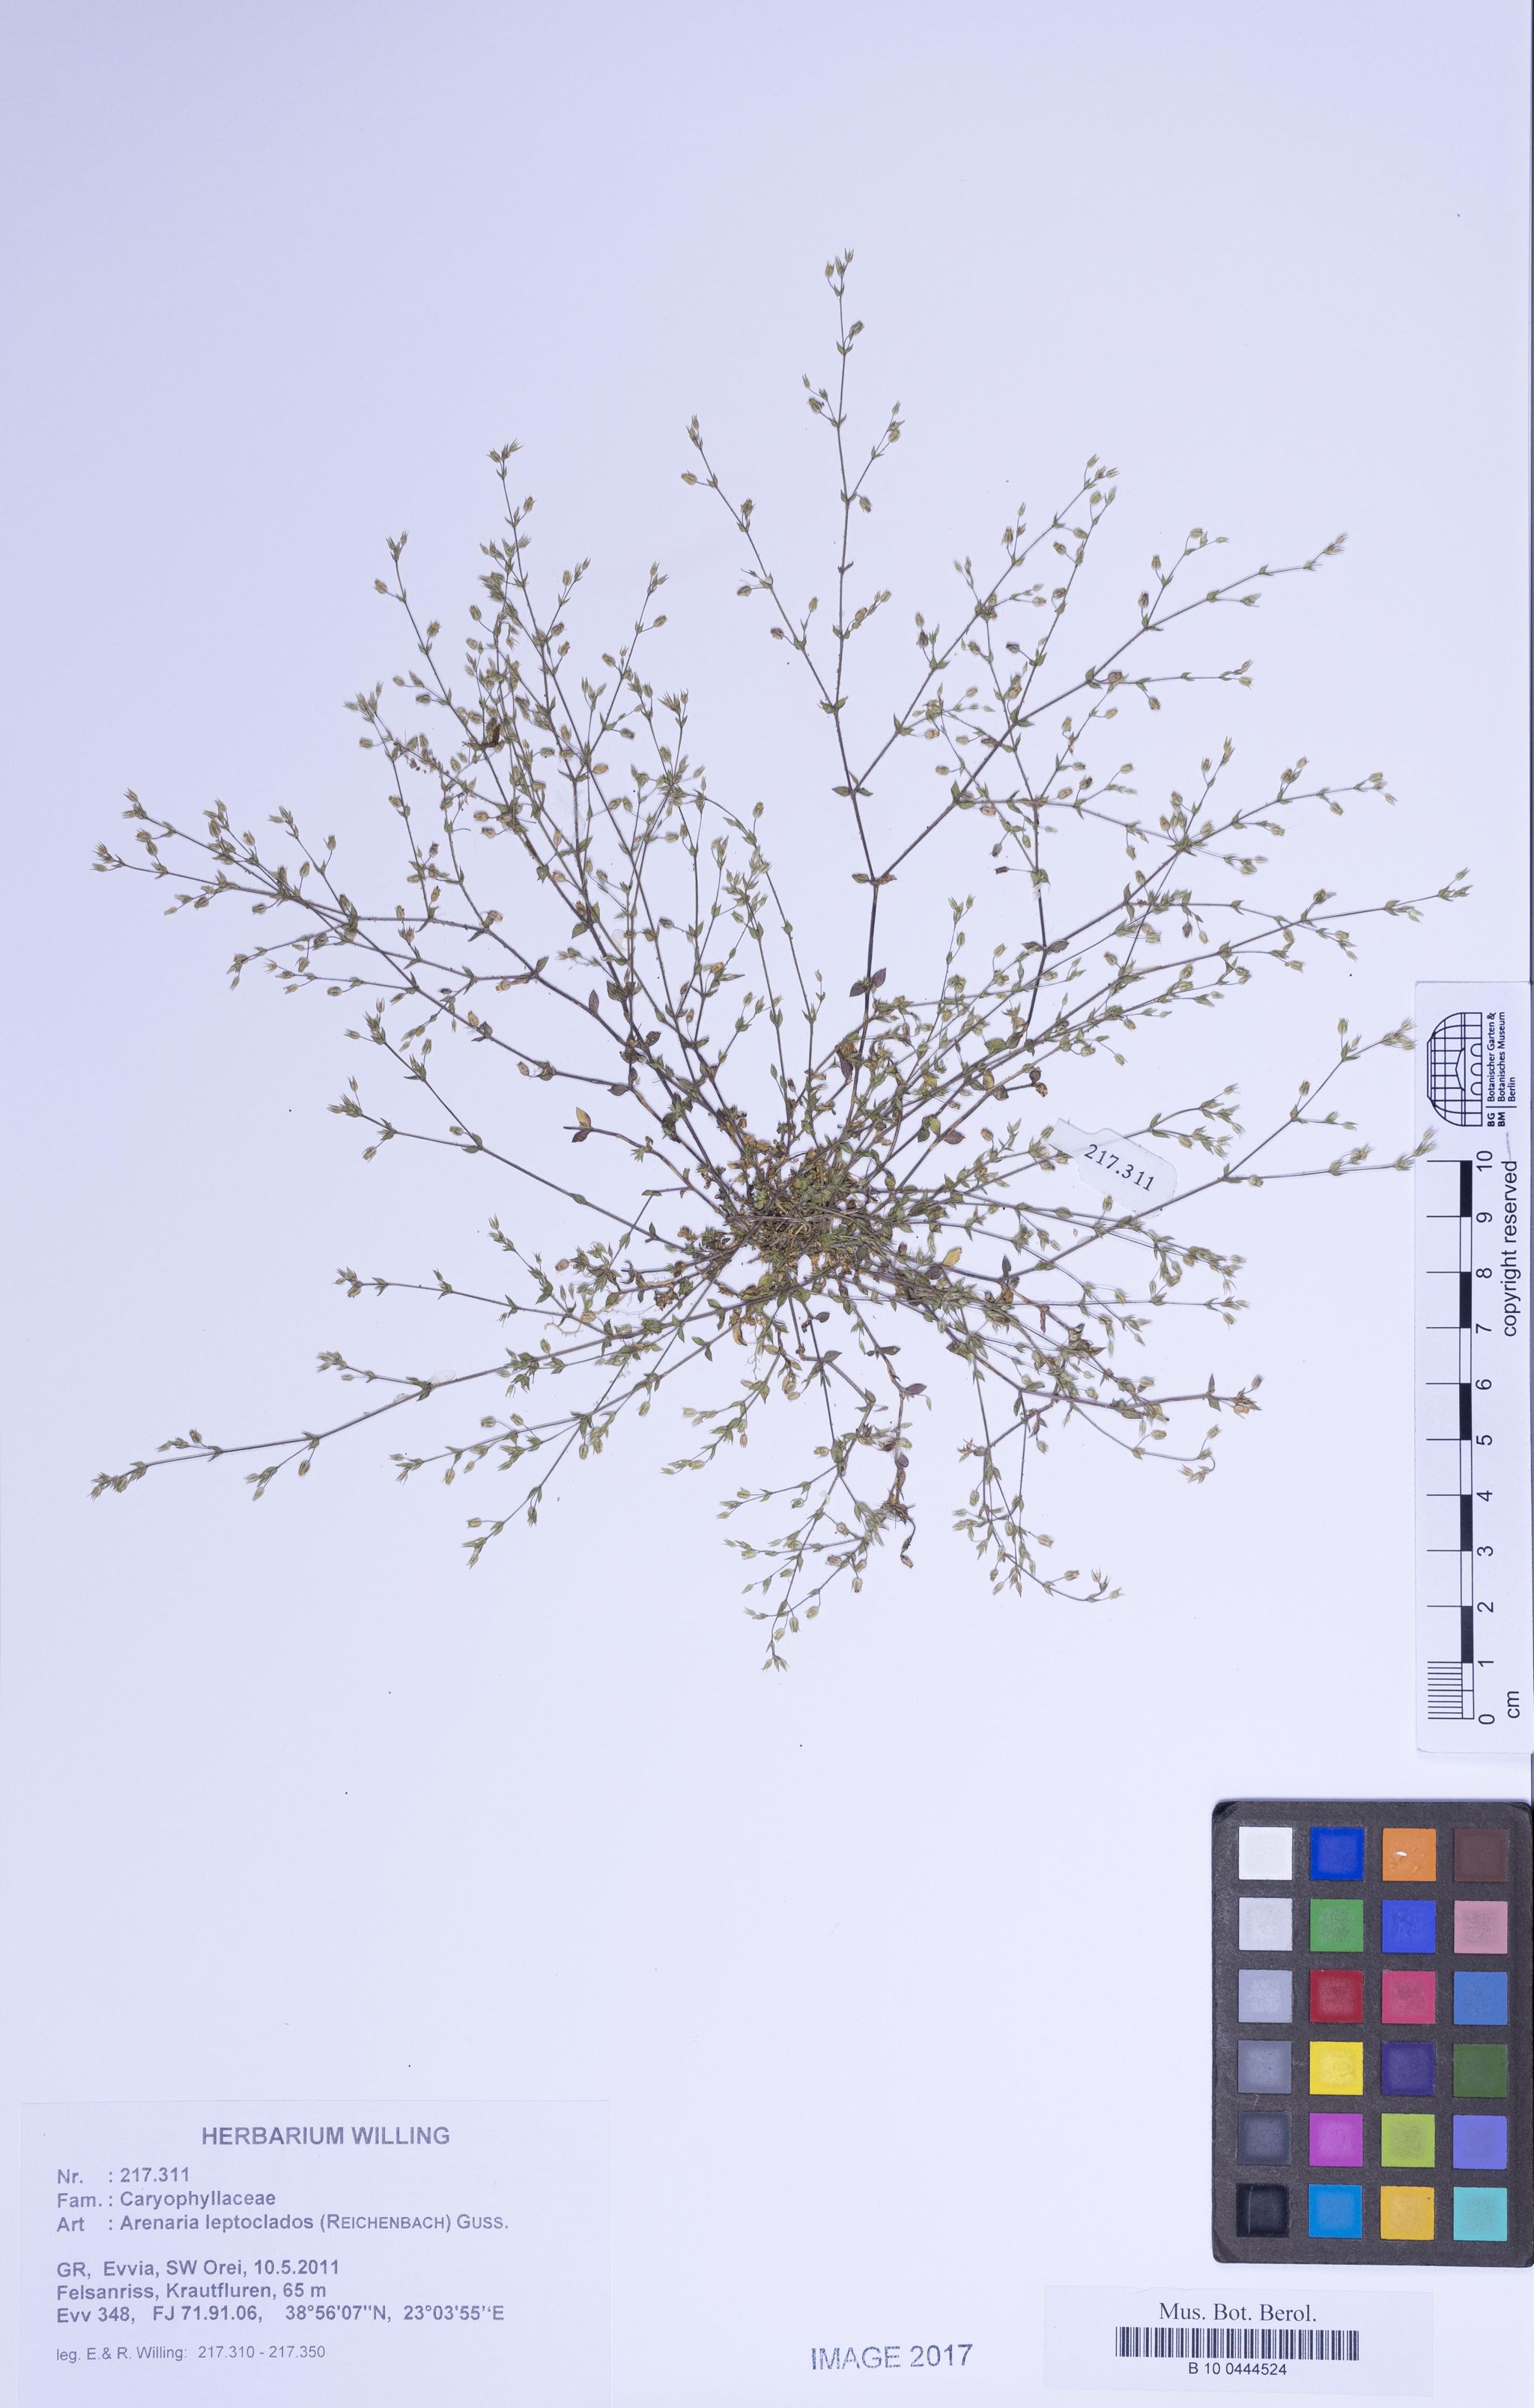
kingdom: Plantae
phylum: Tracheophyta
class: Magnoliopsida
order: Caryophyllales
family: Caryophyllaceae
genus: Arenaria
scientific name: Arenaria leptoclados
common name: Thyme-leaved sandwort
